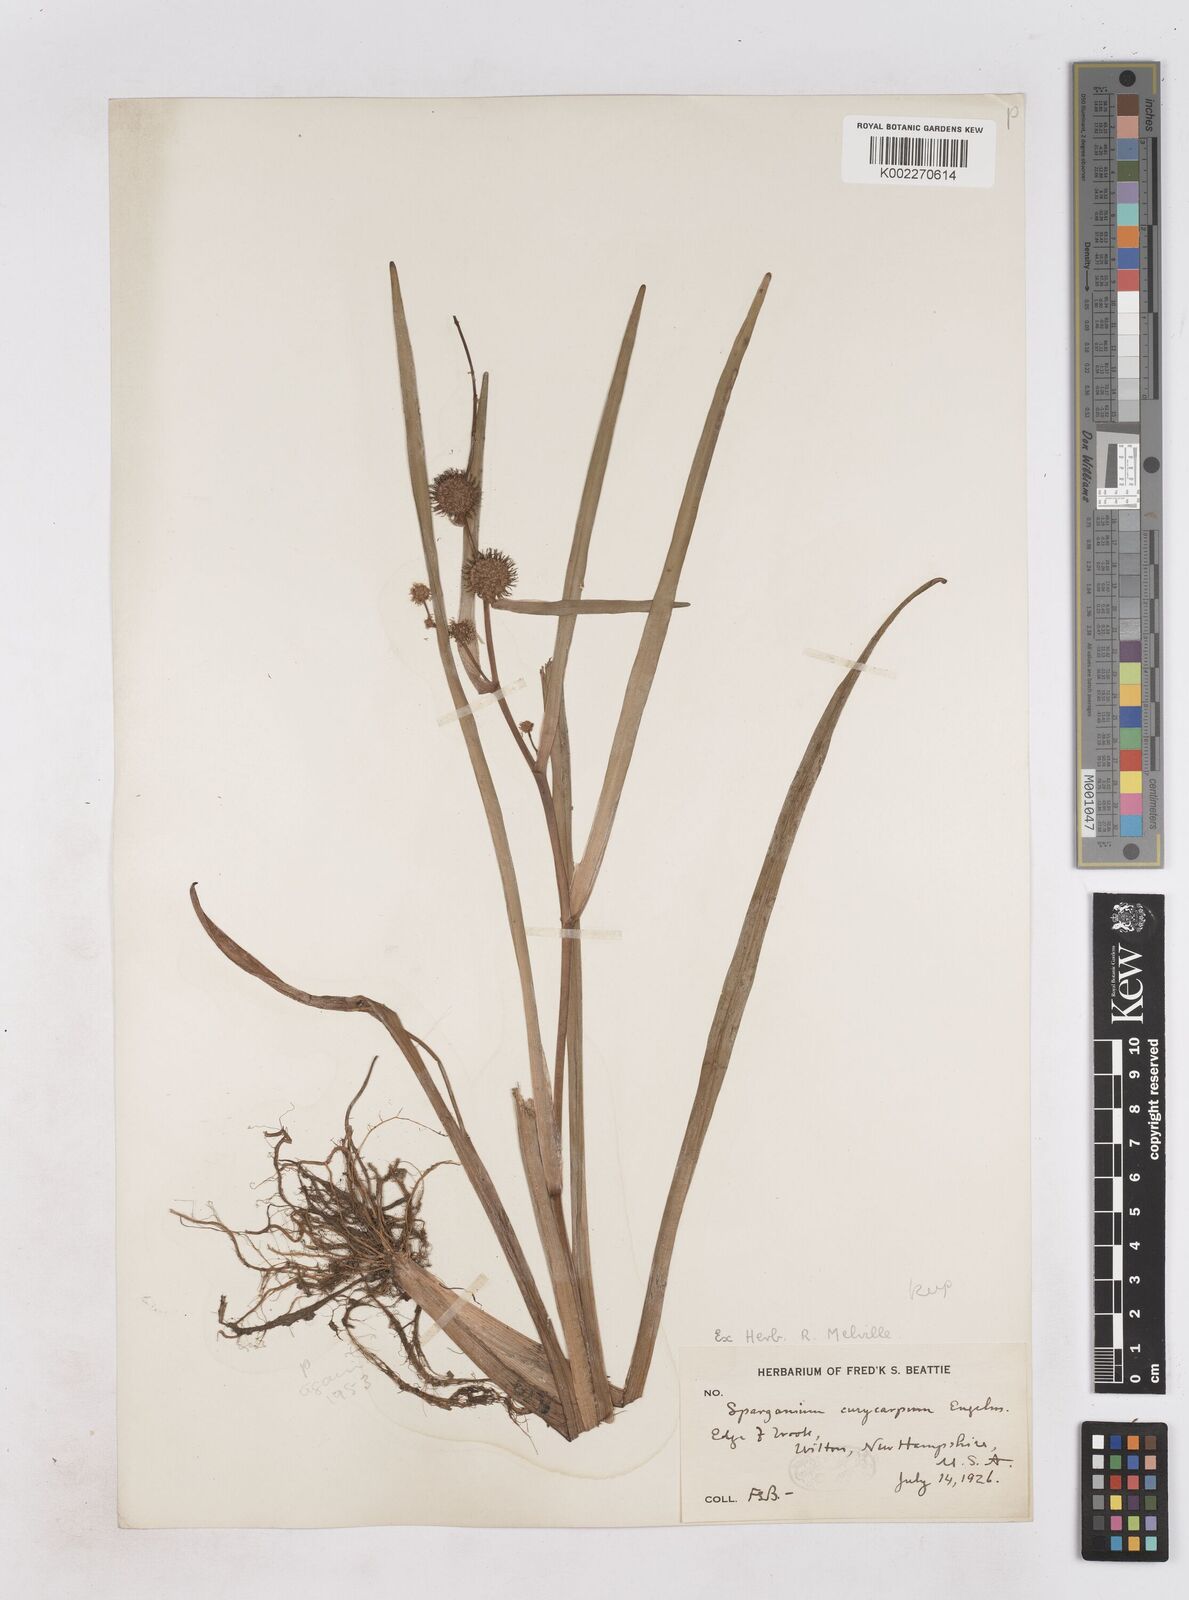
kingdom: Plantae
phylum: Tracheophyta
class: Liliopsida
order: Poales
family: Typhaceae
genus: Sparganium
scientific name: Sparganium eurycarpum
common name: Broad-fruited burreed
